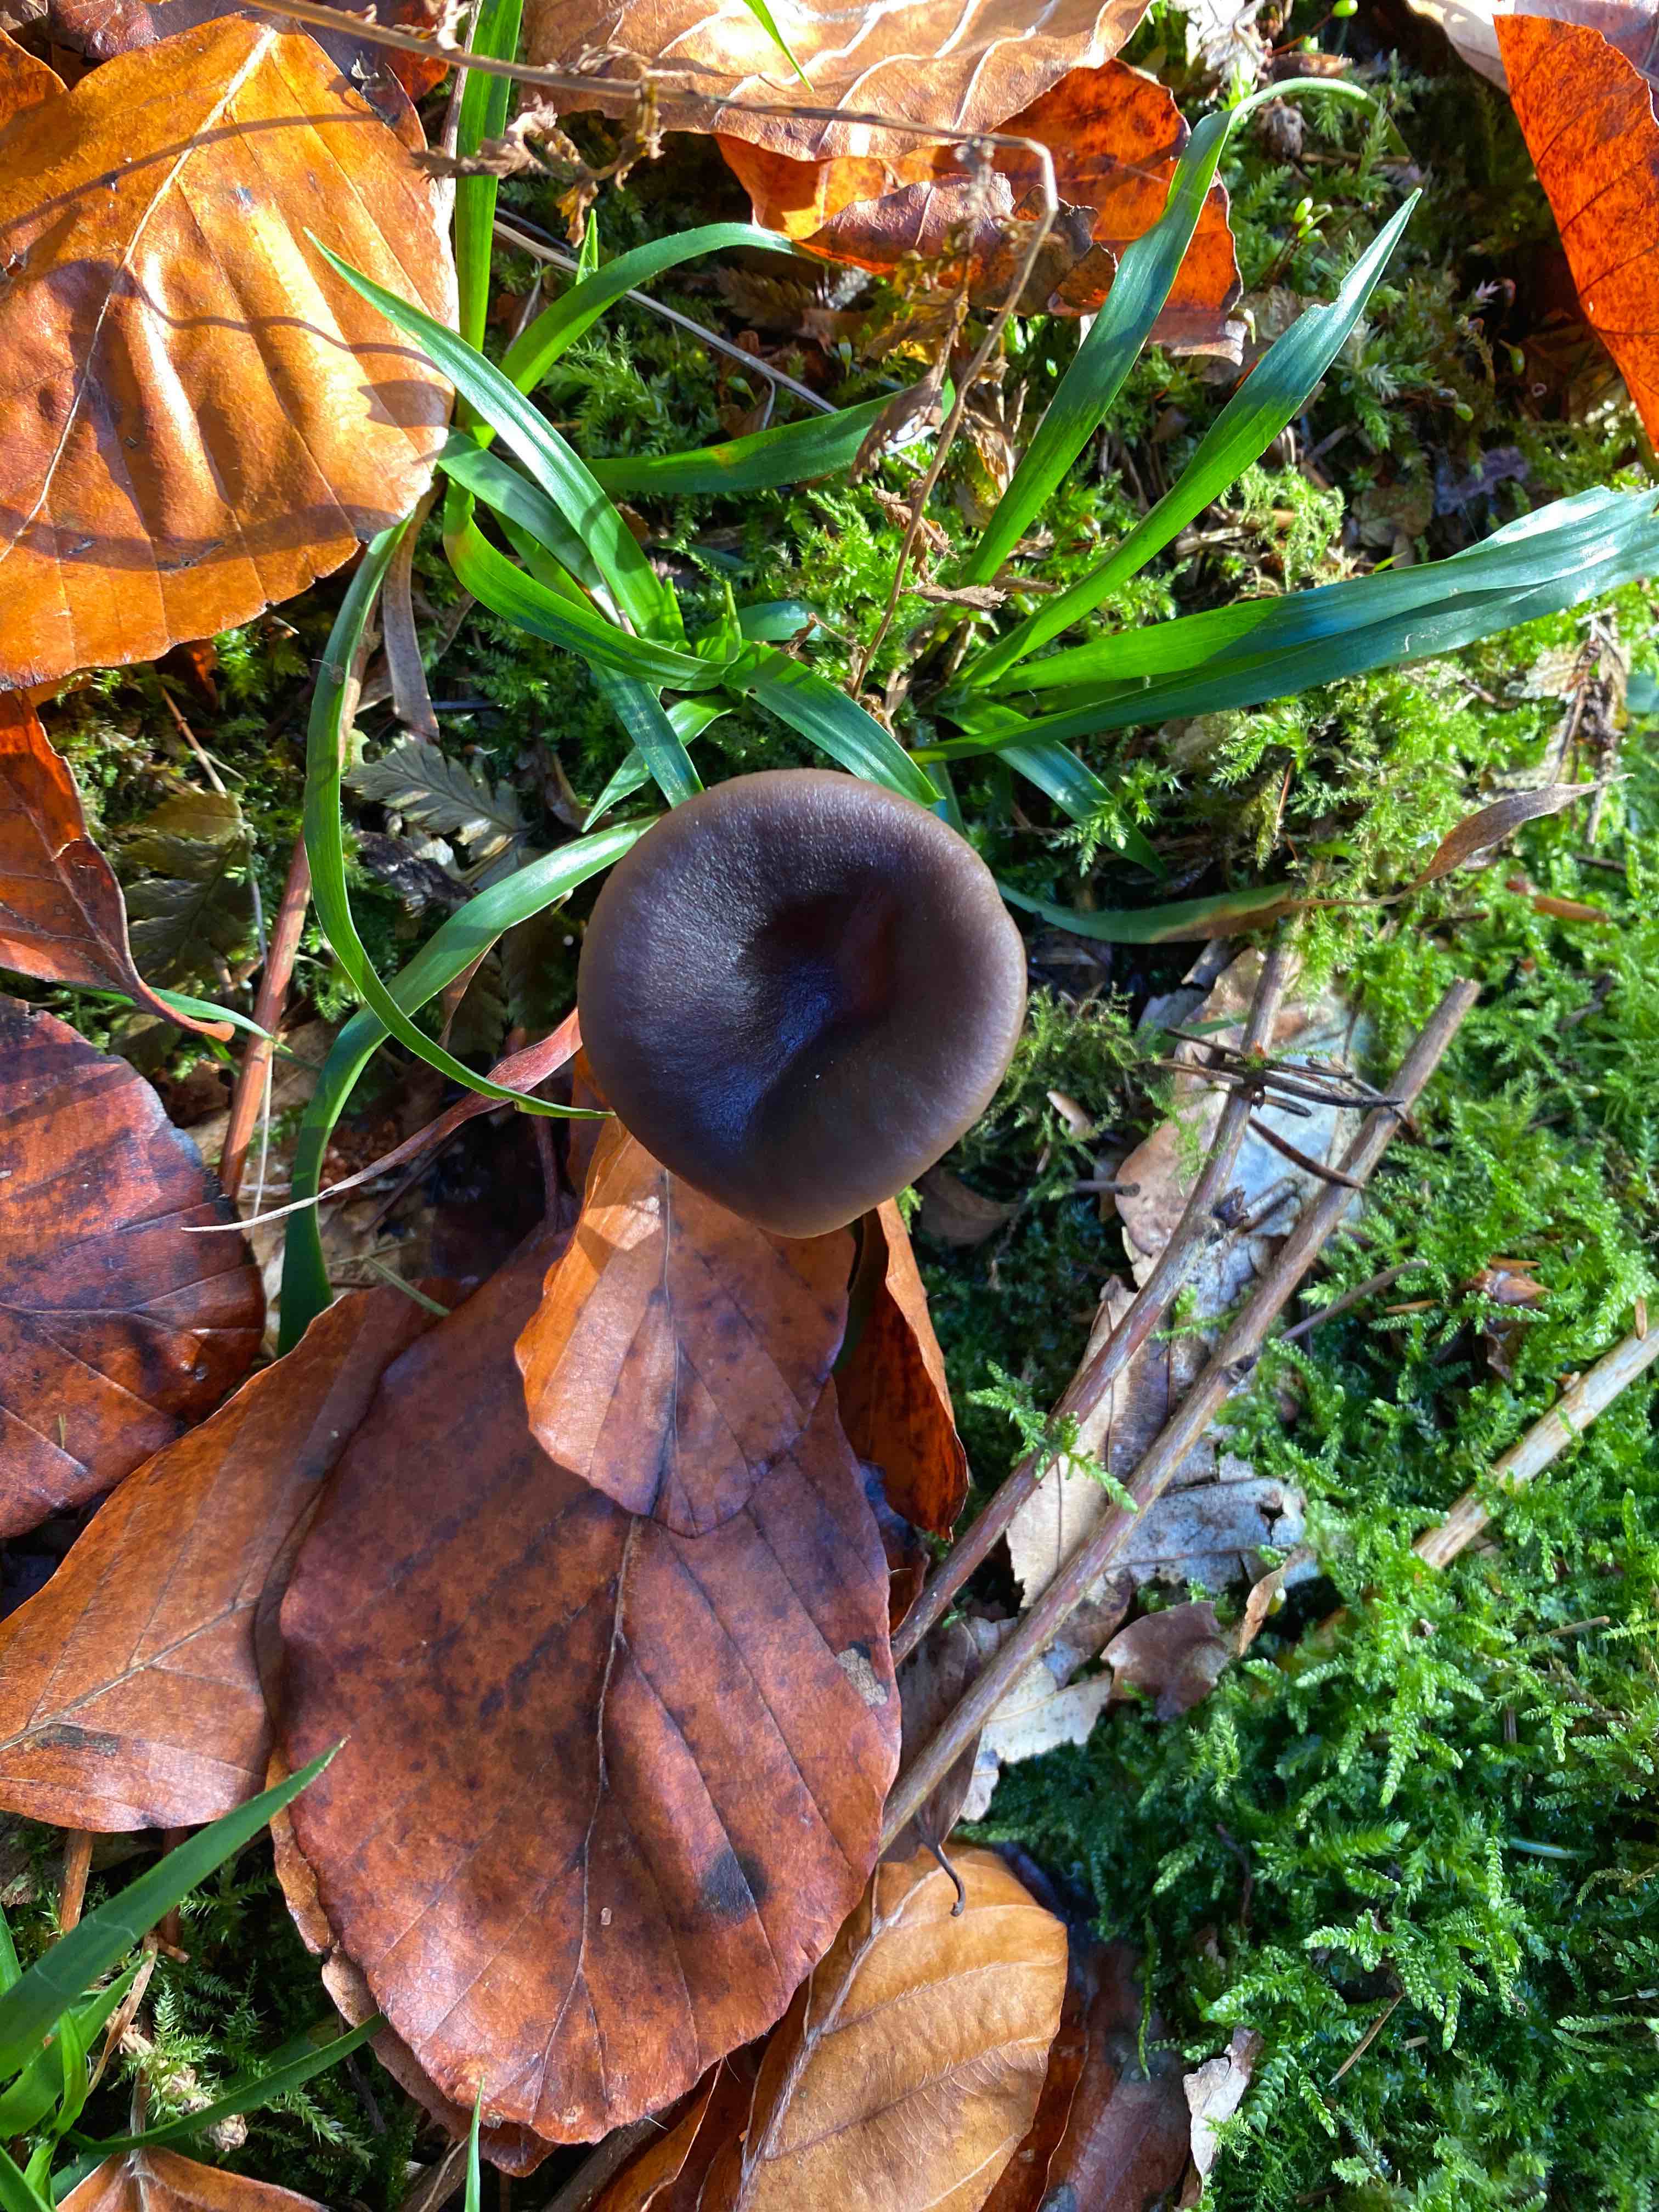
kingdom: Fungi
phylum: Basidiomycota
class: Agaricomycetes
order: Agaricales
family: Pseudoclitocybaceae
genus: Pseudoclitocybe
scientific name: Pseudoclitocybe cyathiformis
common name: almindelig bægertragthat
